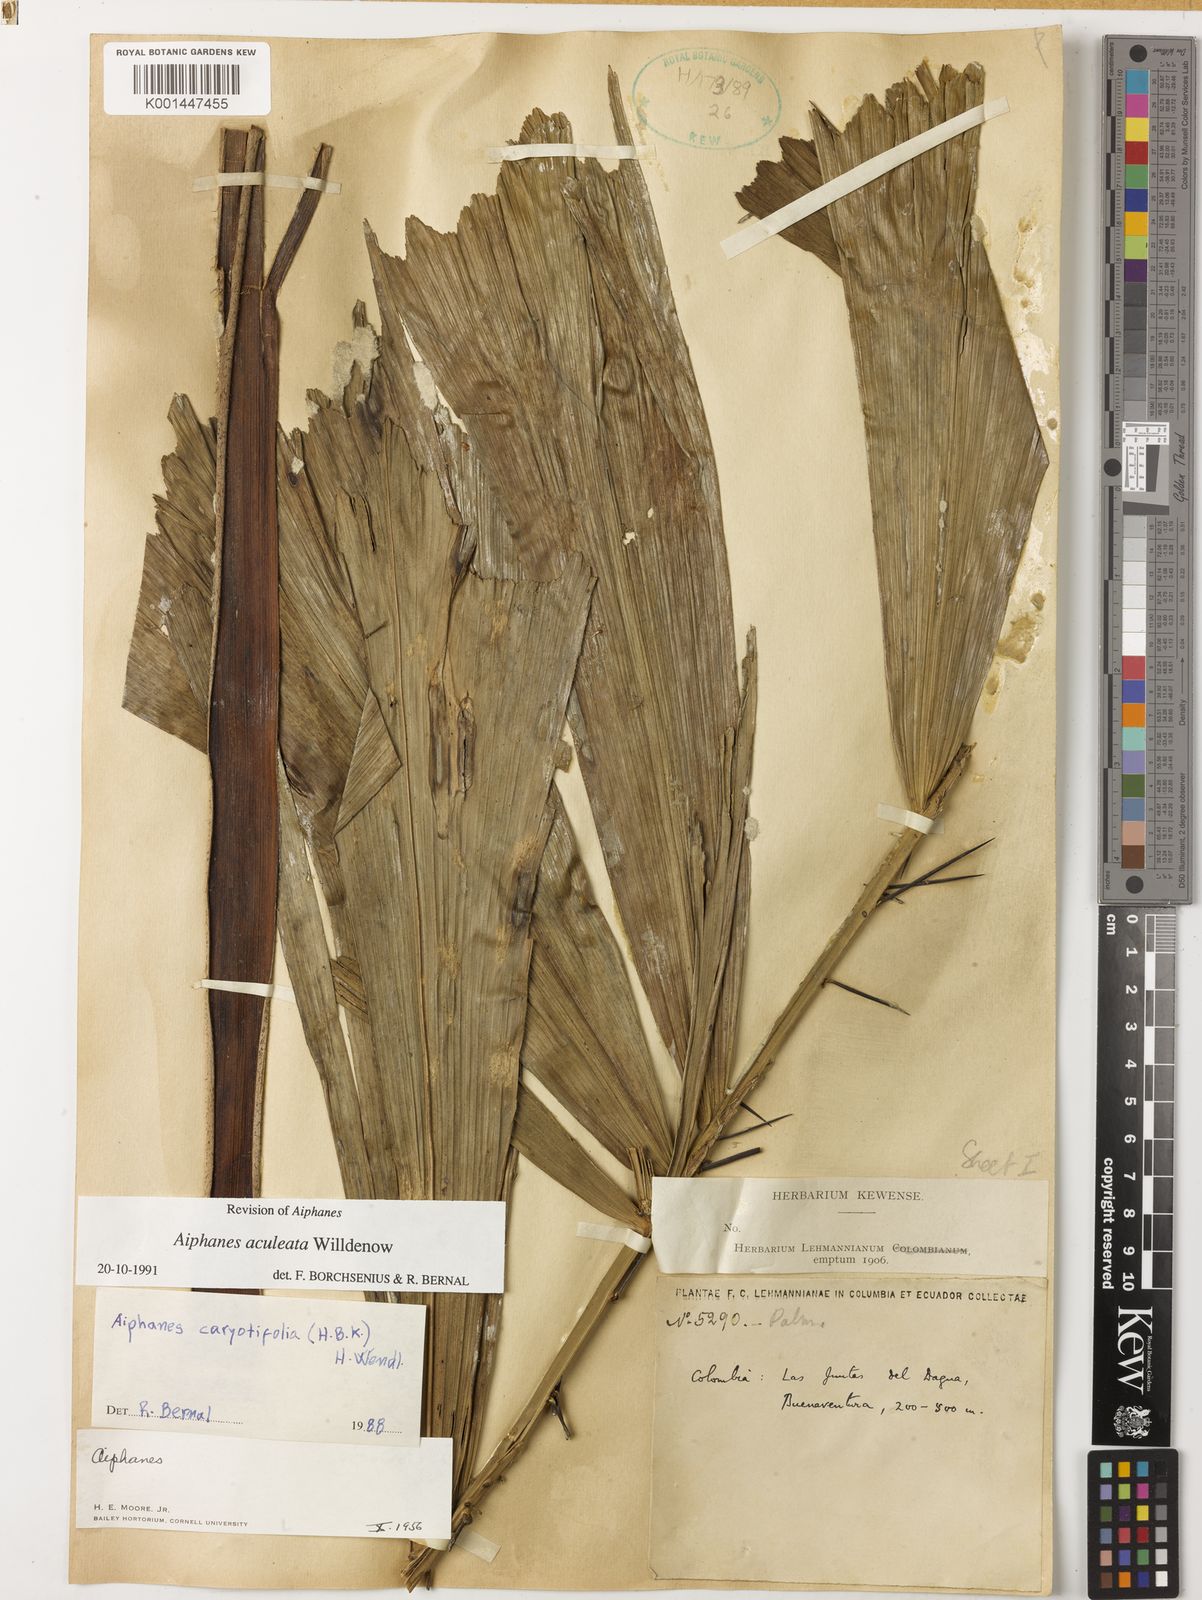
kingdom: Plantae
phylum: Tracheophyta
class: Liliopsida
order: Arecales
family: Arecaceae
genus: Aiphanes
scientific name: Aiphanes horrida
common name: Ruffle palm
